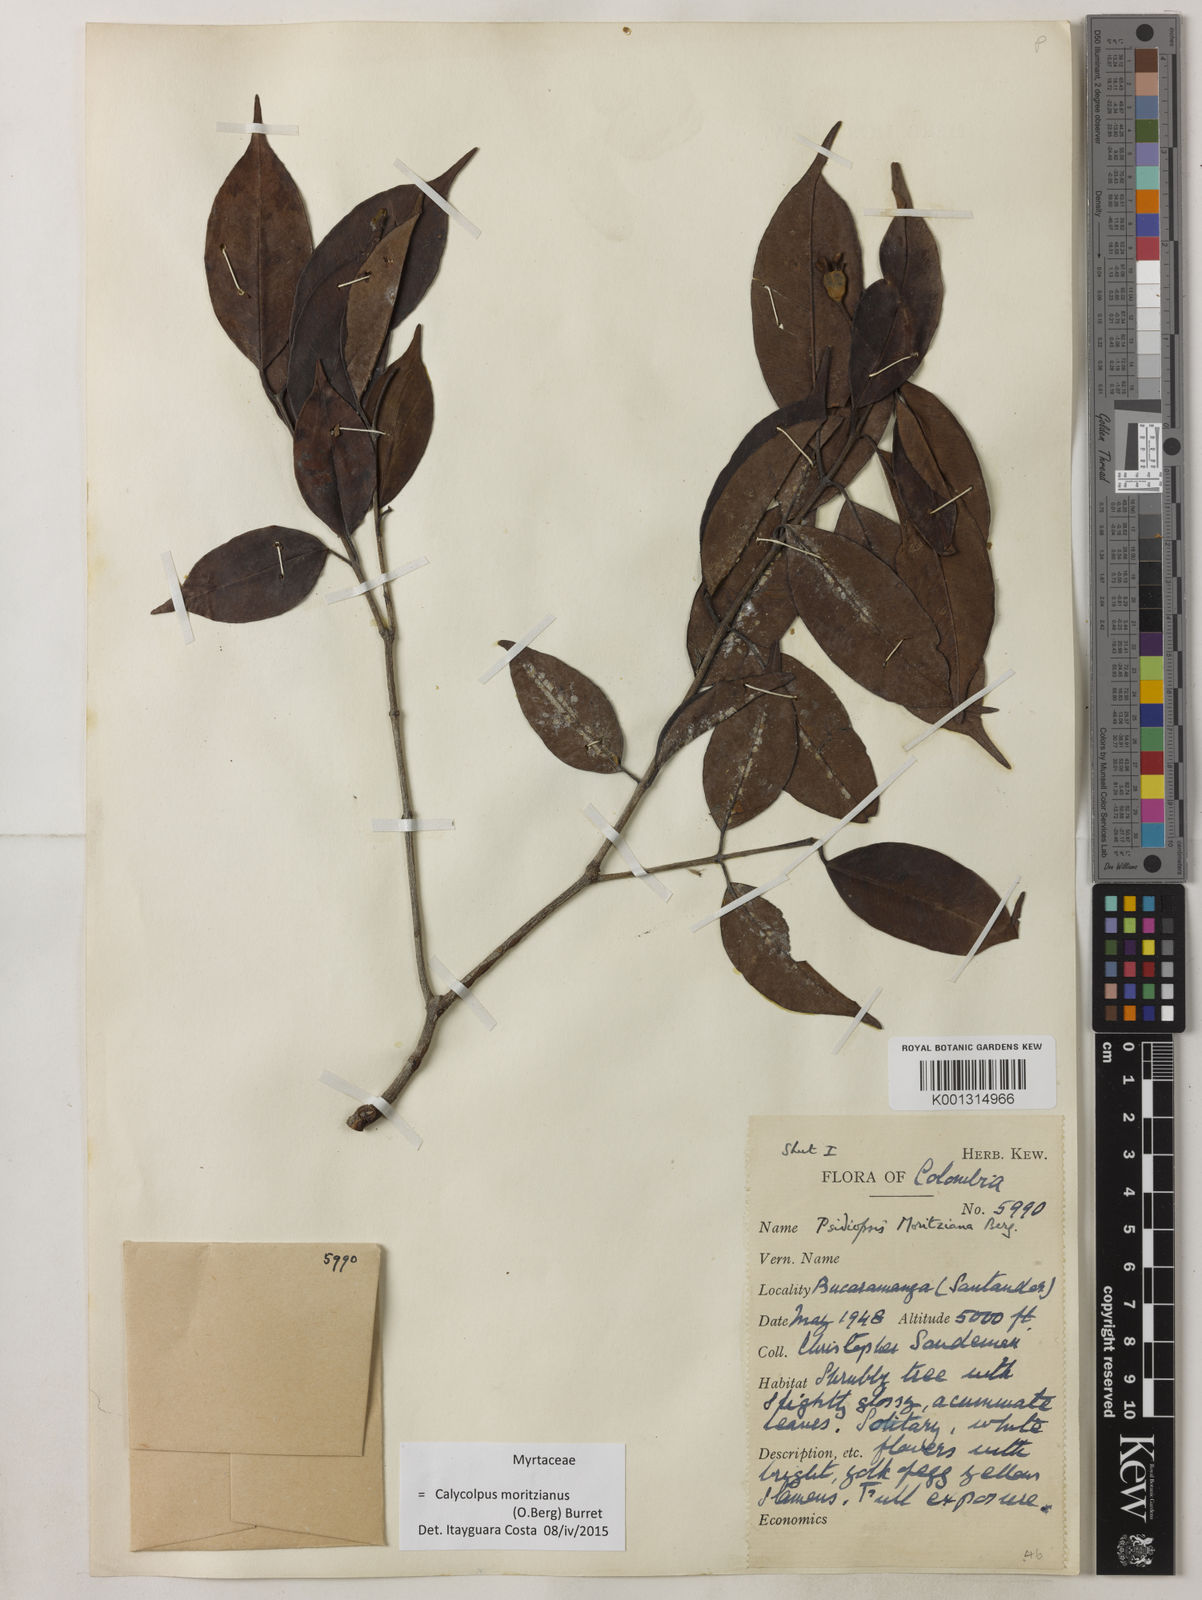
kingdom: Plantae
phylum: Tracheophyta
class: Magnoliopsida
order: Myrtales
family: Myrtaceae
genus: Calycolpus
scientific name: Calycolpus moritzianus
